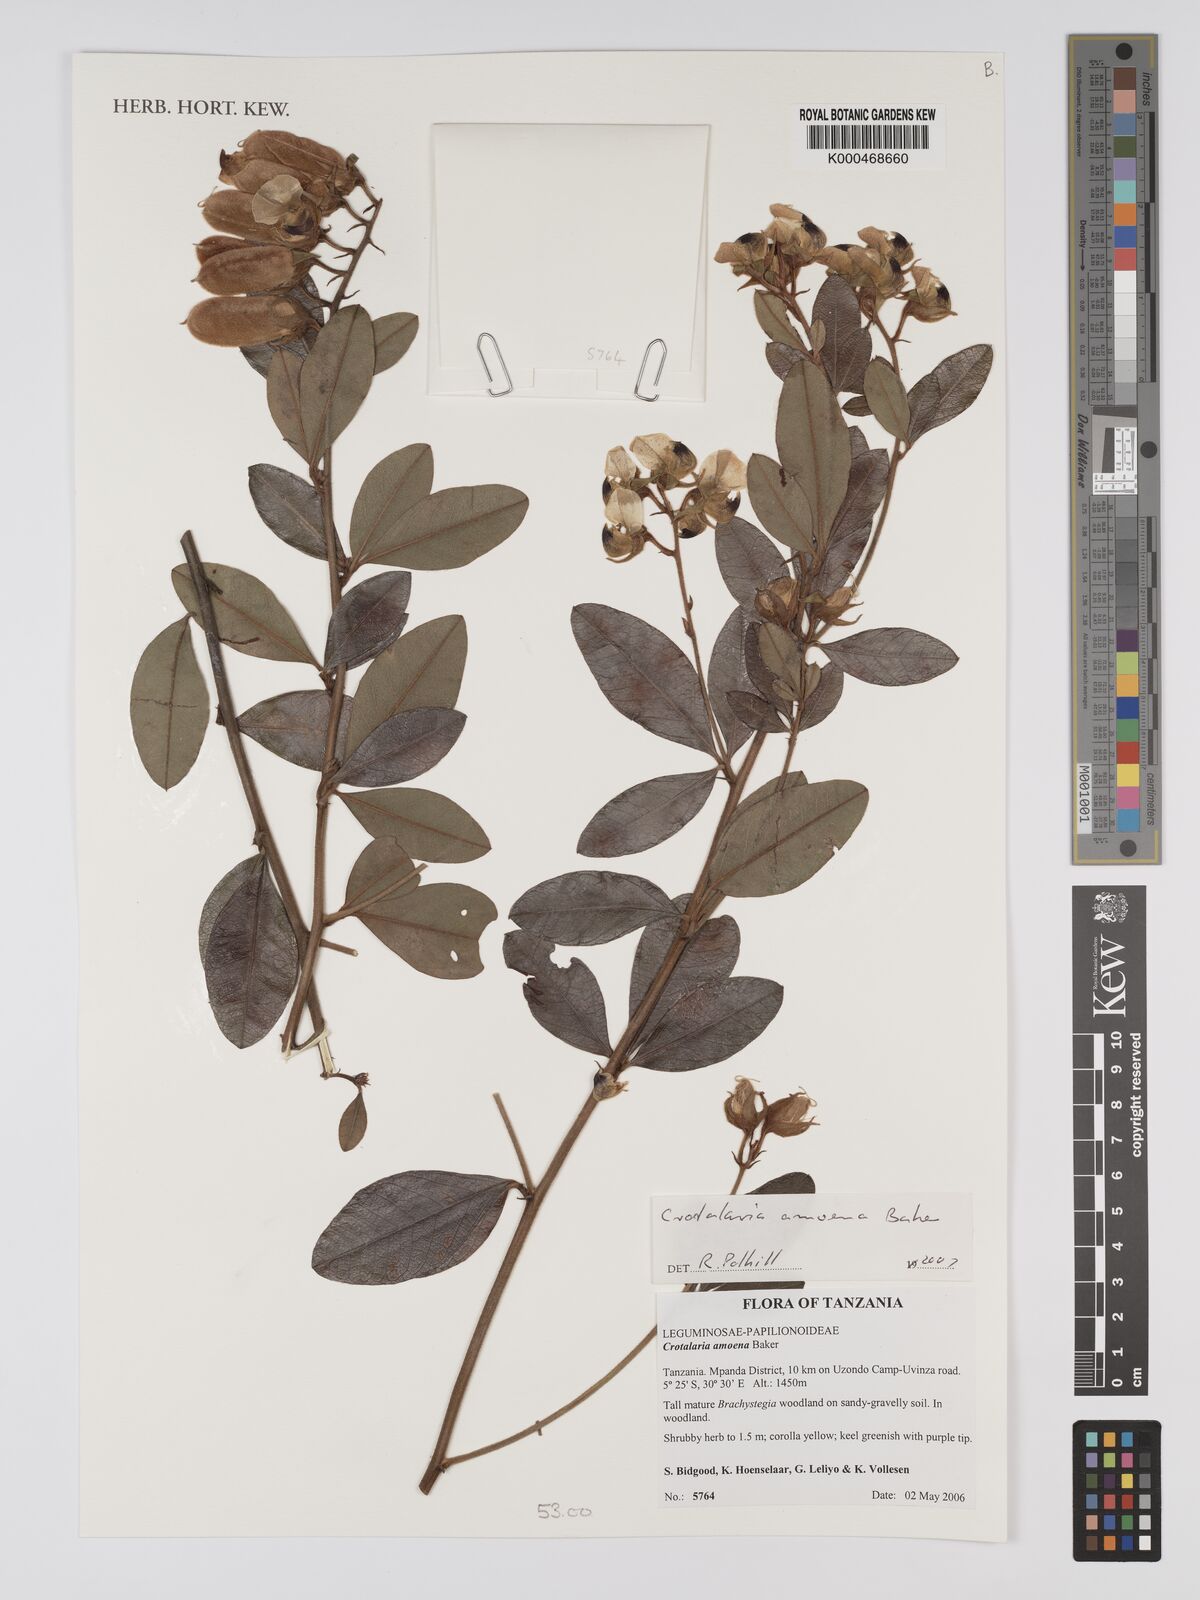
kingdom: Plantae
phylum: Tracheophyta
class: Magnoliopsida
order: Fabales
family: Fabaceae
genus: Crotalaria
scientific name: Crotalaria amoena
